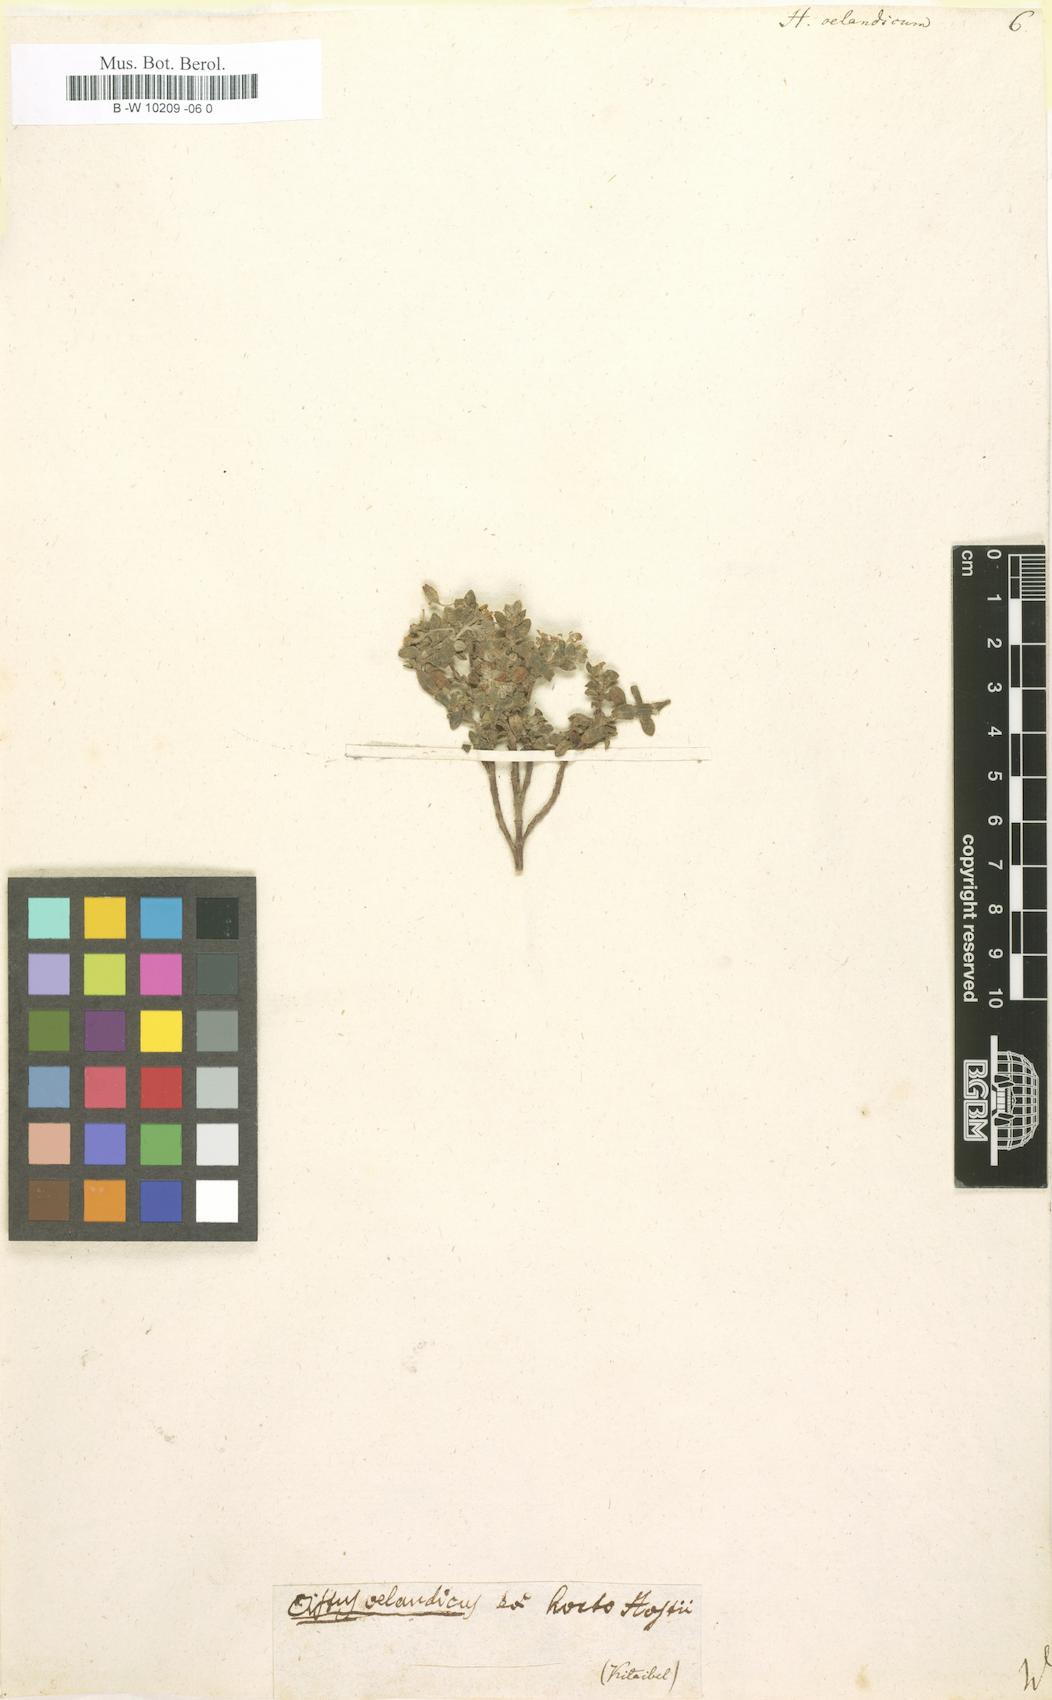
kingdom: Plantae
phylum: Tracheophyta
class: Magnoliopsida
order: Malvales
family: Cistaceae
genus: Helianthemum
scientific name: Helianthemum oelandicum
